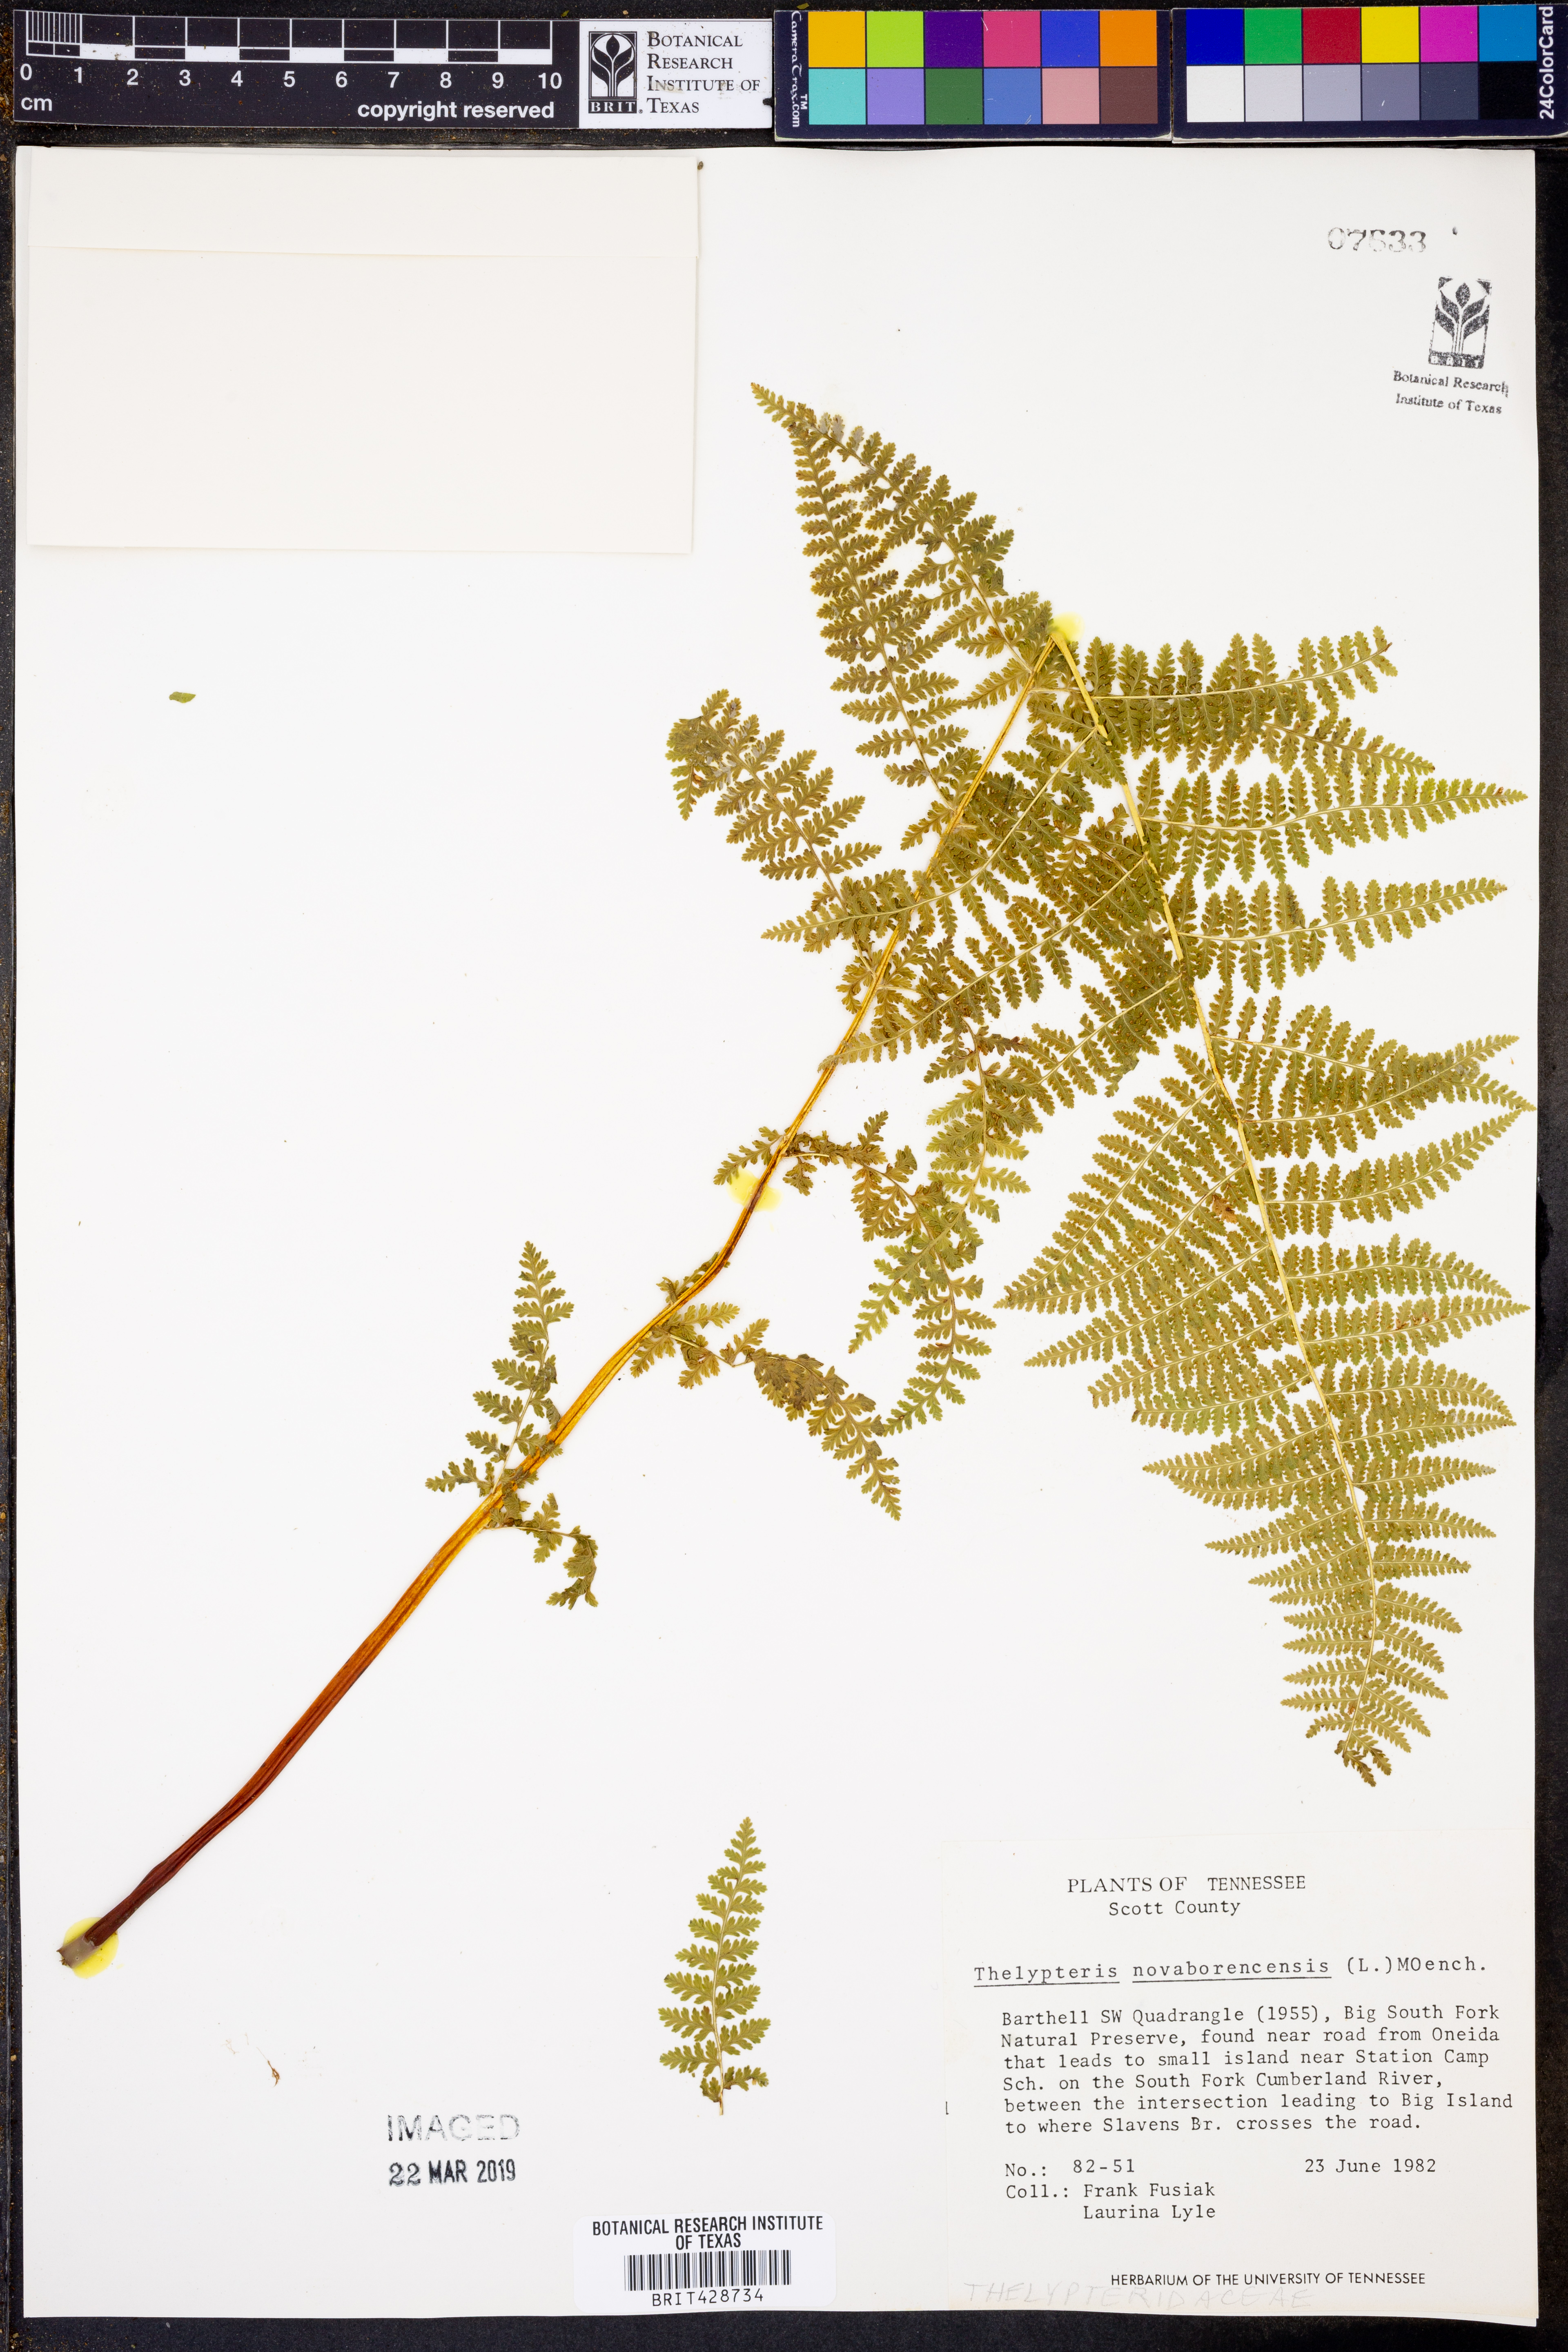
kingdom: Plantae
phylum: Tracheophyta
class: Polypodiopsida
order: Polypodiales
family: Thelypteridaceae
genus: Amauropelta
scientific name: Amauropelta noveboracensis
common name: New york fern
